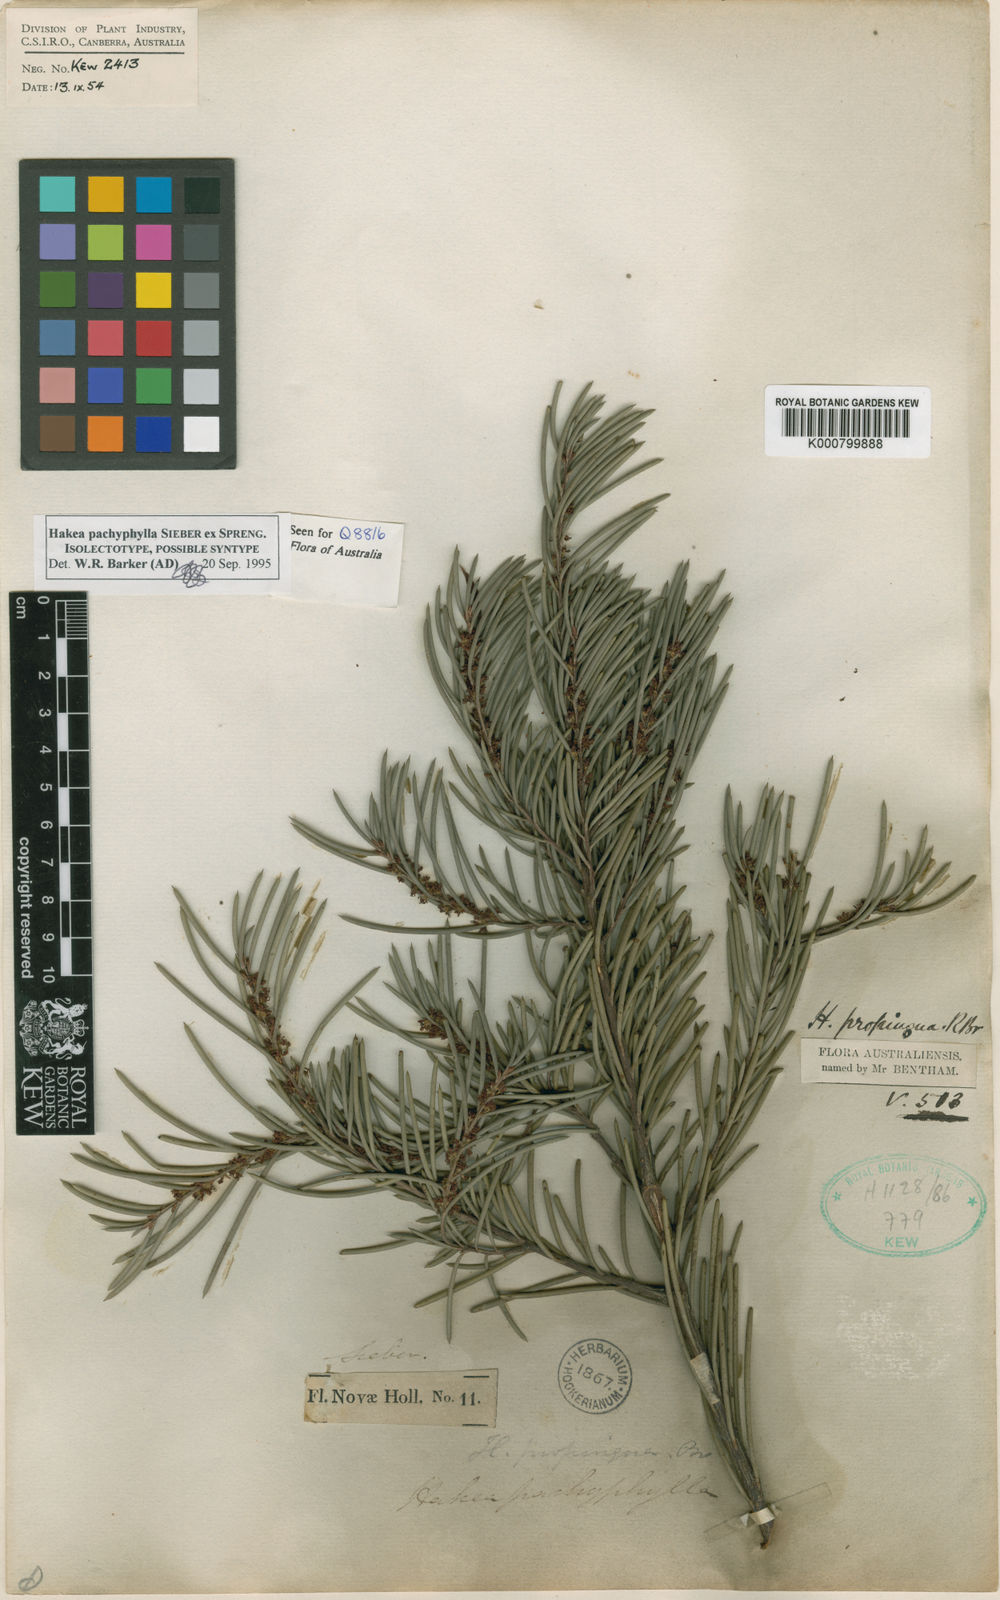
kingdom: Plantae
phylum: Tracheophyta
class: Magnoliopsida
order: Proteales
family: Proteaceae
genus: Hakea
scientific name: Hakea
